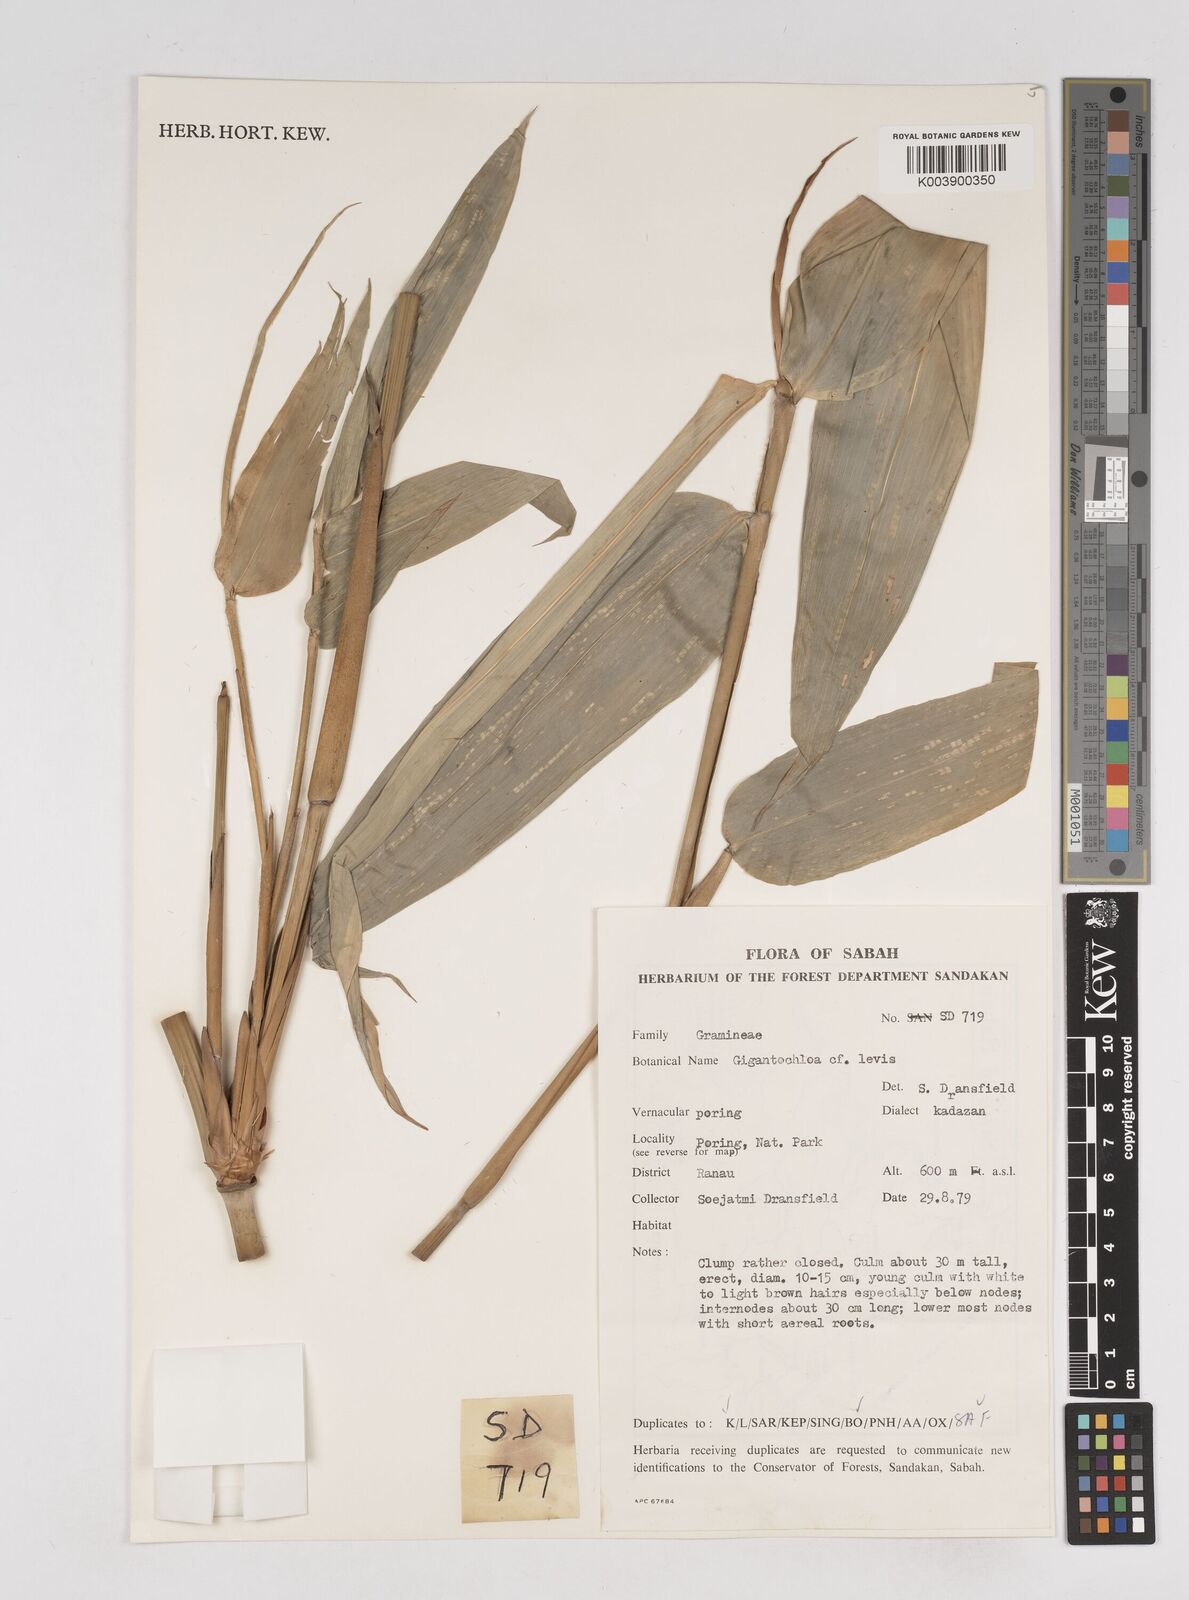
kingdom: Plantae
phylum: Tracheophyta
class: Liliopsida
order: Poales
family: Poaceae
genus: Gigantochloa
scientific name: Gigantochloa levis
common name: Smooth-shoot gigantochloa
